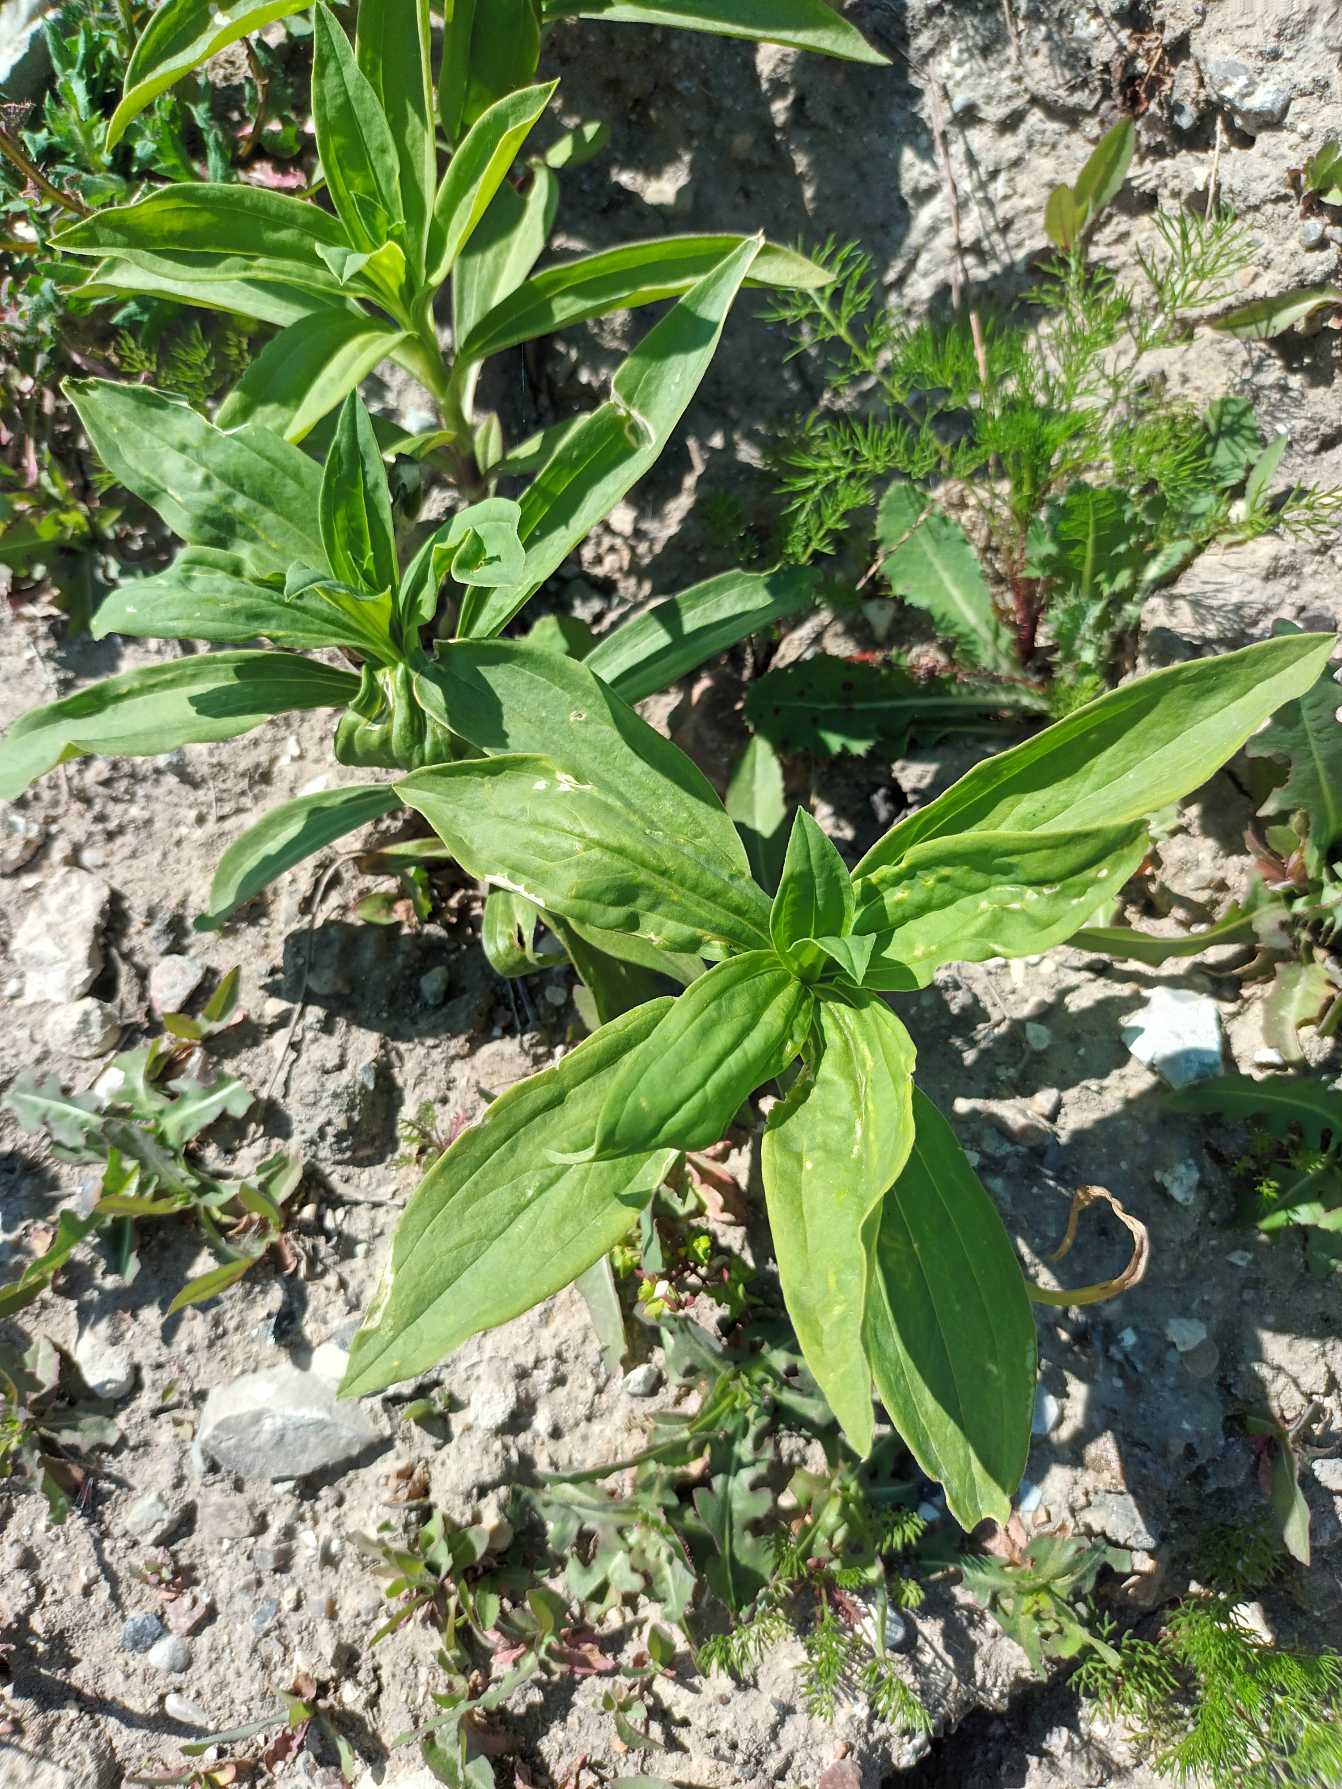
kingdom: Plantae
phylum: Tracheophyta
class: Magnoliopsida
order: Caryophyllales
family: Caryophyllaceae
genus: Saponaria
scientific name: Saponaria officinalis
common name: Sæbeurt
